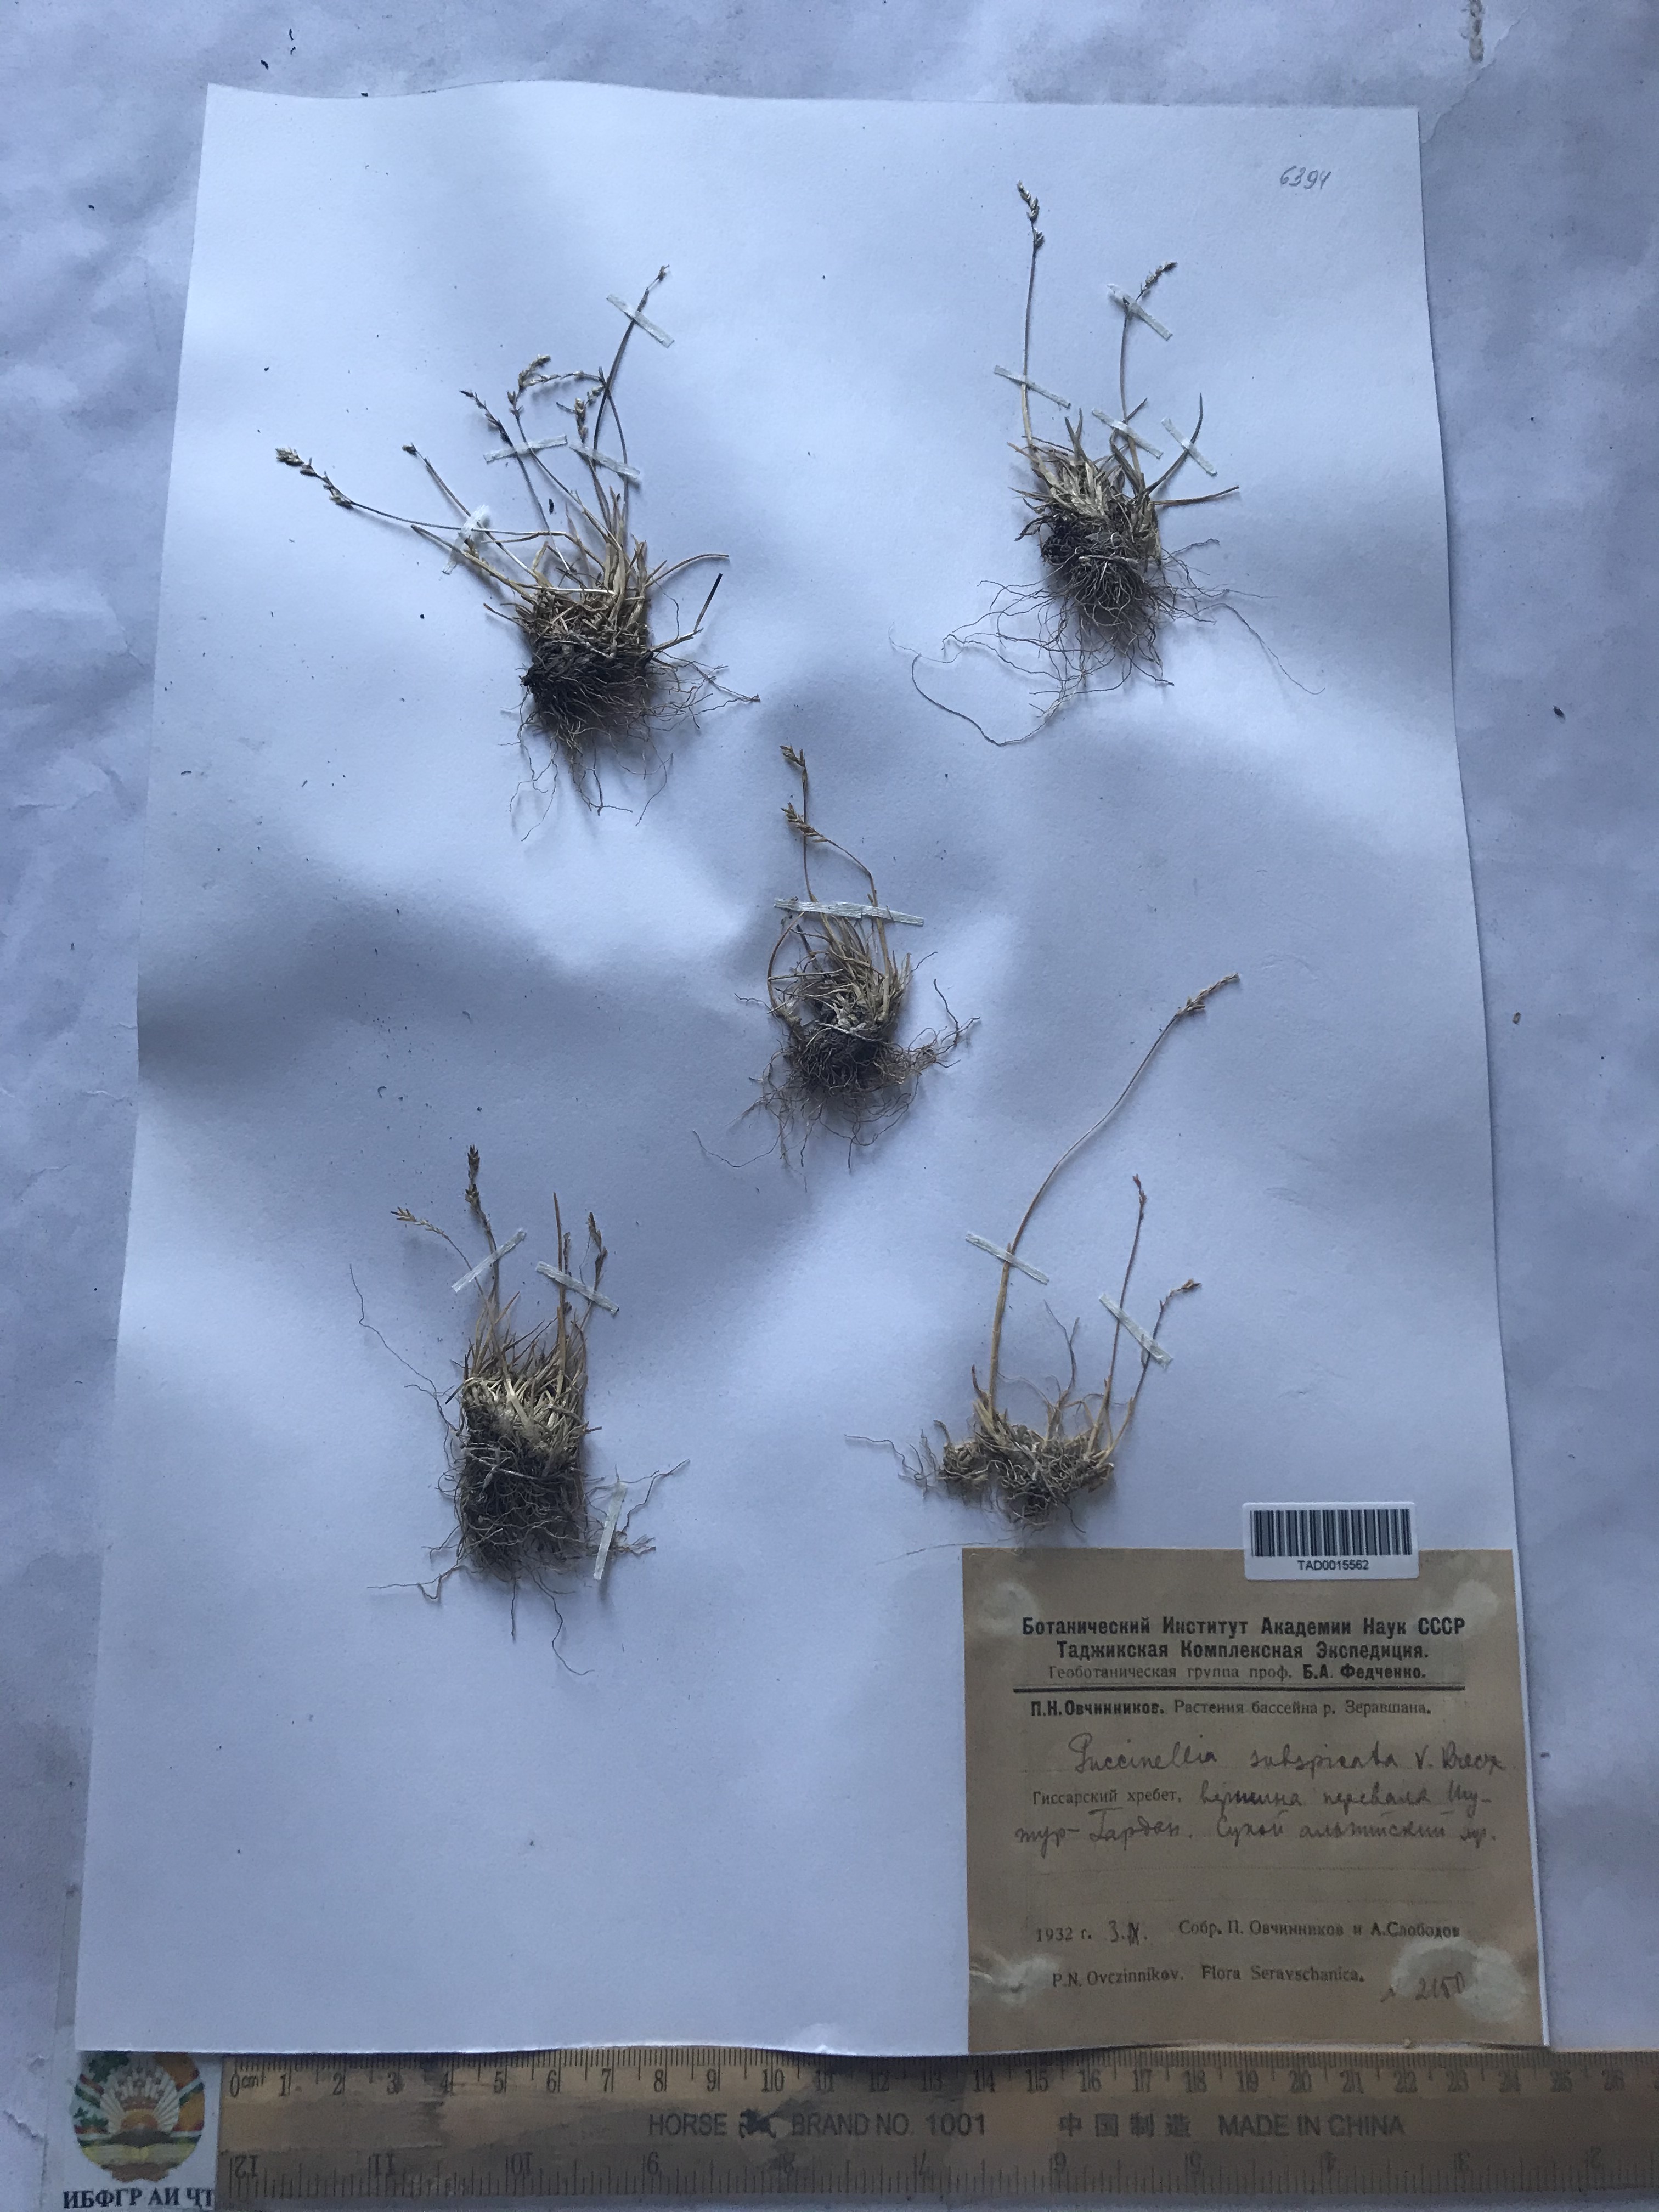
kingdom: Plantae
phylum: Tracheophyta
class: Liliopsida
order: Poales
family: Poaceae
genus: Puccinellia
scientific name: Puccinellia subspicata
